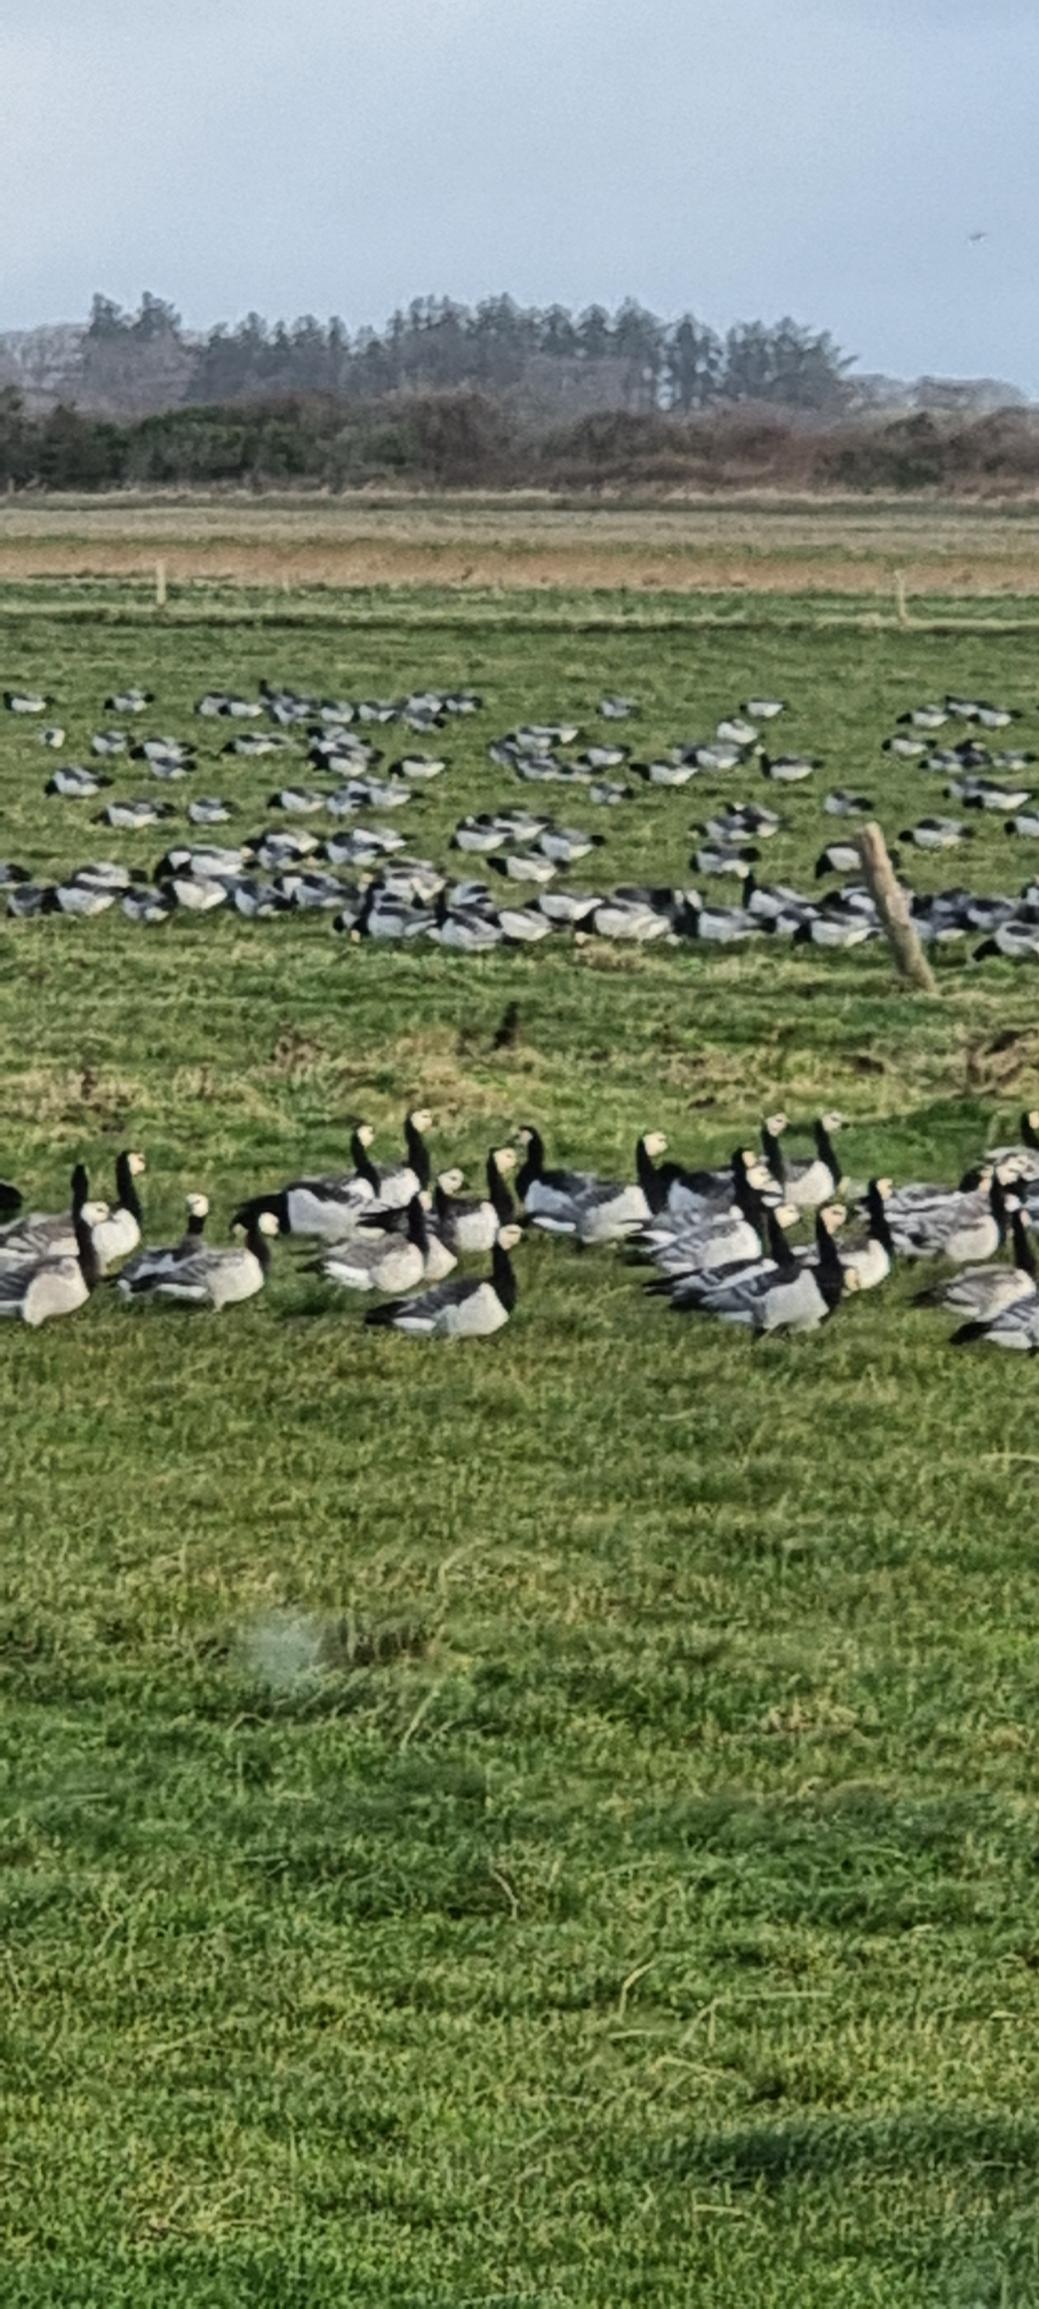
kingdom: Animalia
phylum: Chordata
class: Aves
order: Anseriformes
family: Anatidae
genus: Branta
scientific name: Branta leucopsis
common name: Bramgås
